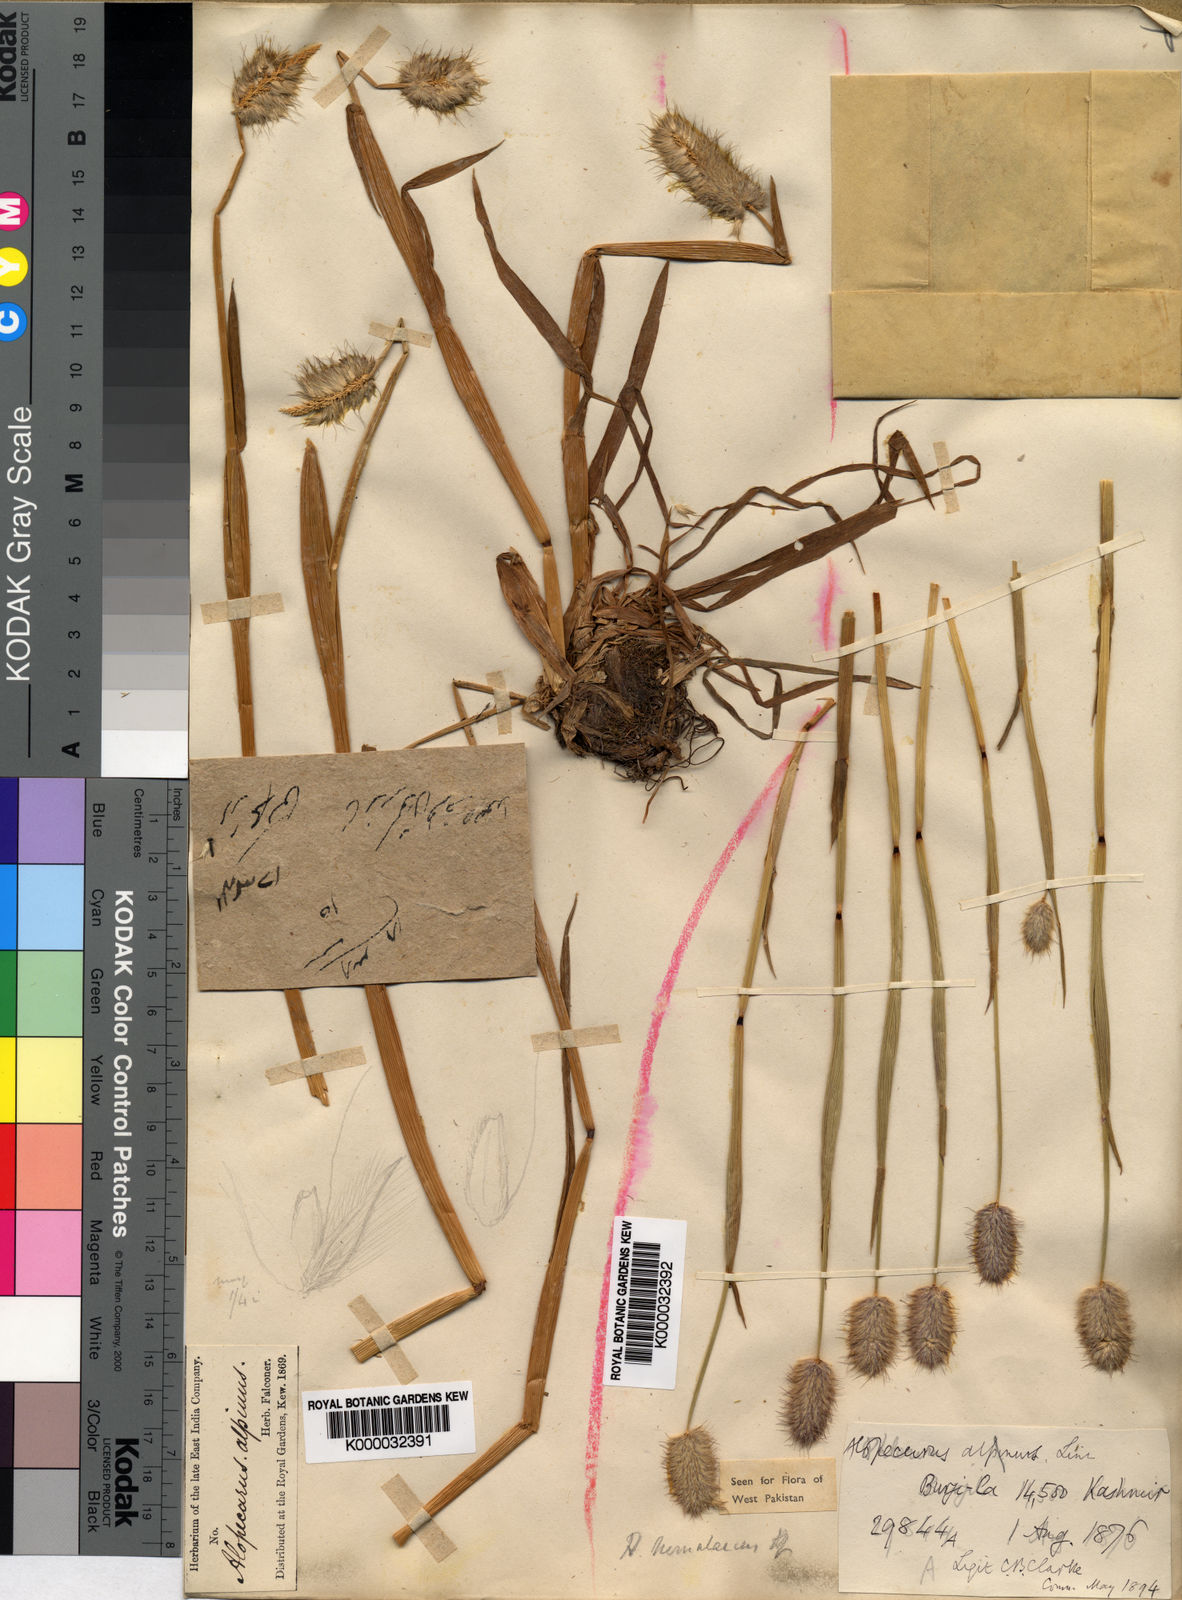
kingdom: Plantae
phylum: Tracheophyta
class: Liliopsida
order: Poales
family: Poaceae
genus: Alopecurus
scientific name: Alopecurus himalaicus
